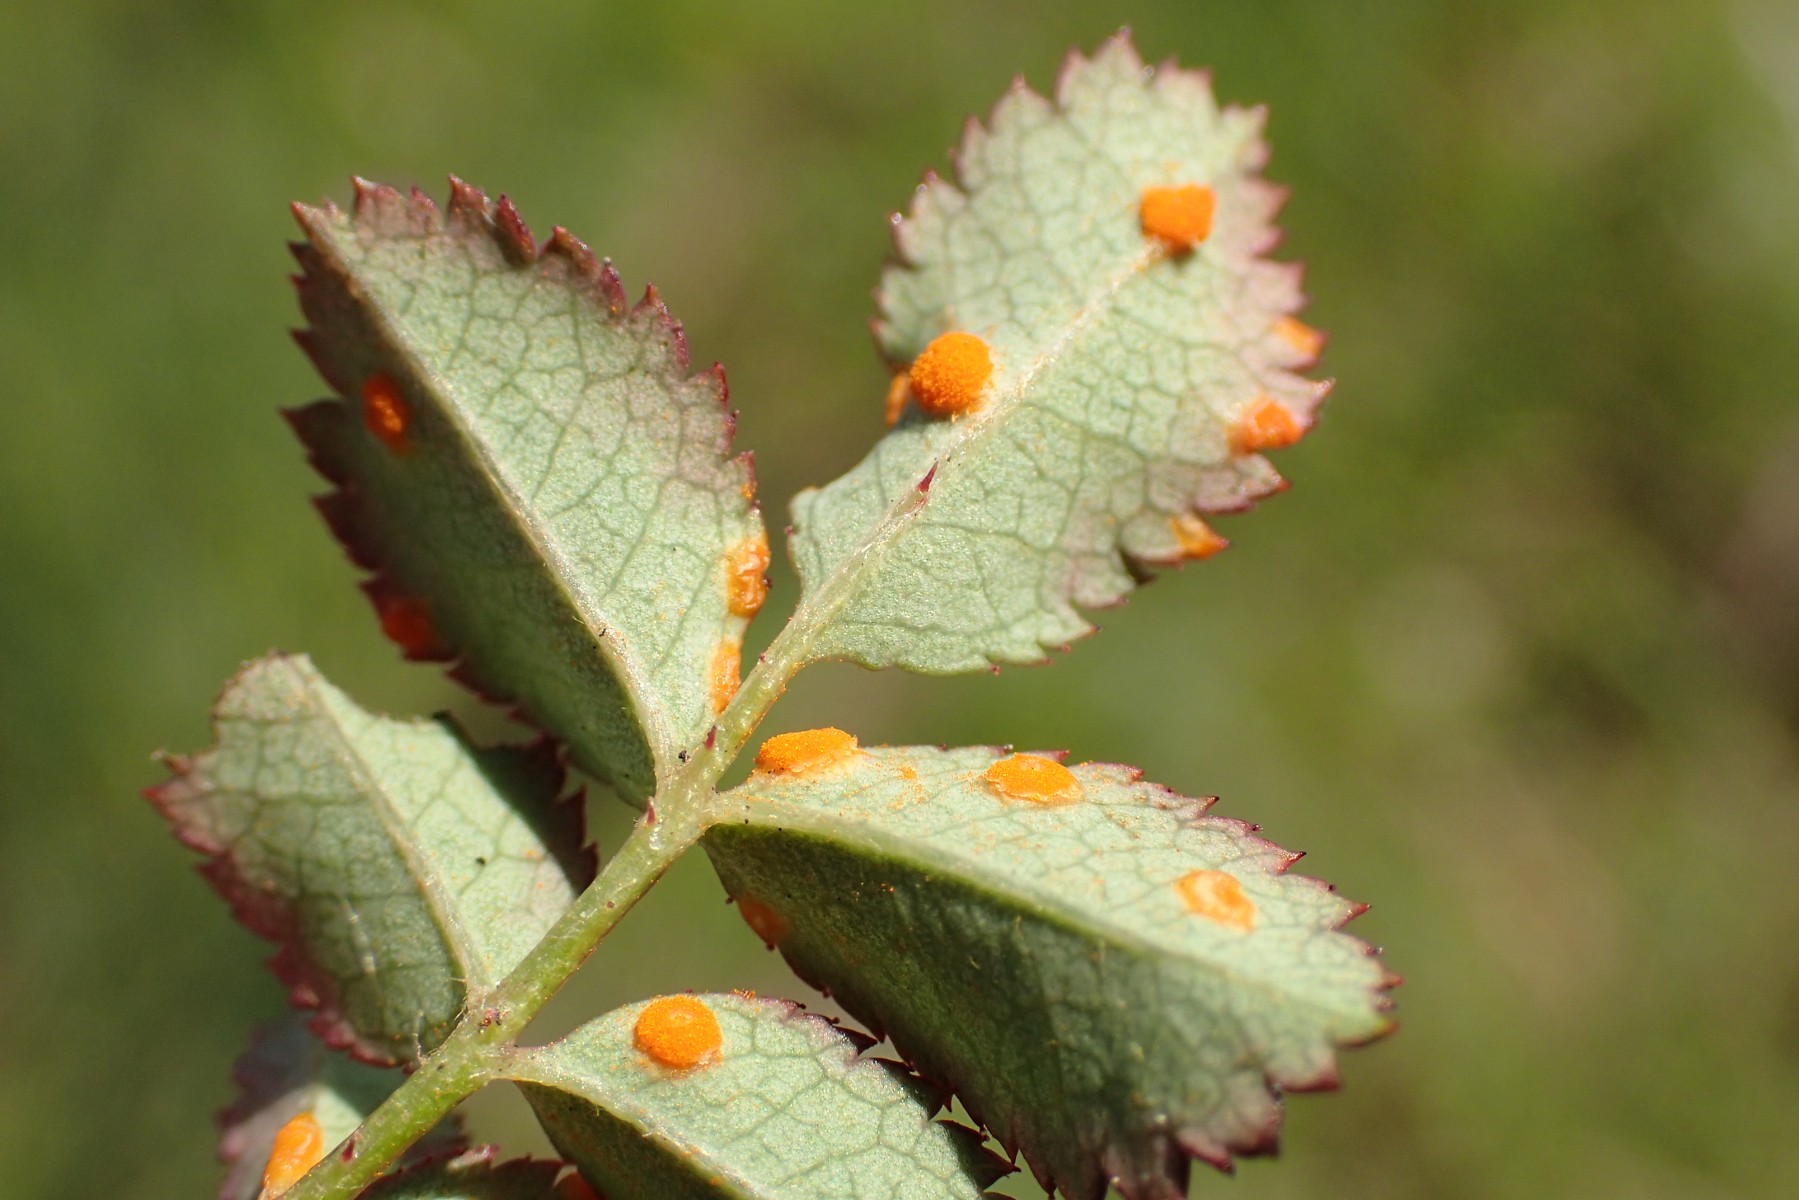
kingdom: Fungi
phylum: Basidiomycota
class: Pucciniomycetes
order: Pucciniales
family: Phragmidiaceae
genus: Phragmidium
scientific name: Phragmidium rosae-pimpinellifoliae
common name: Burnet rose rust
